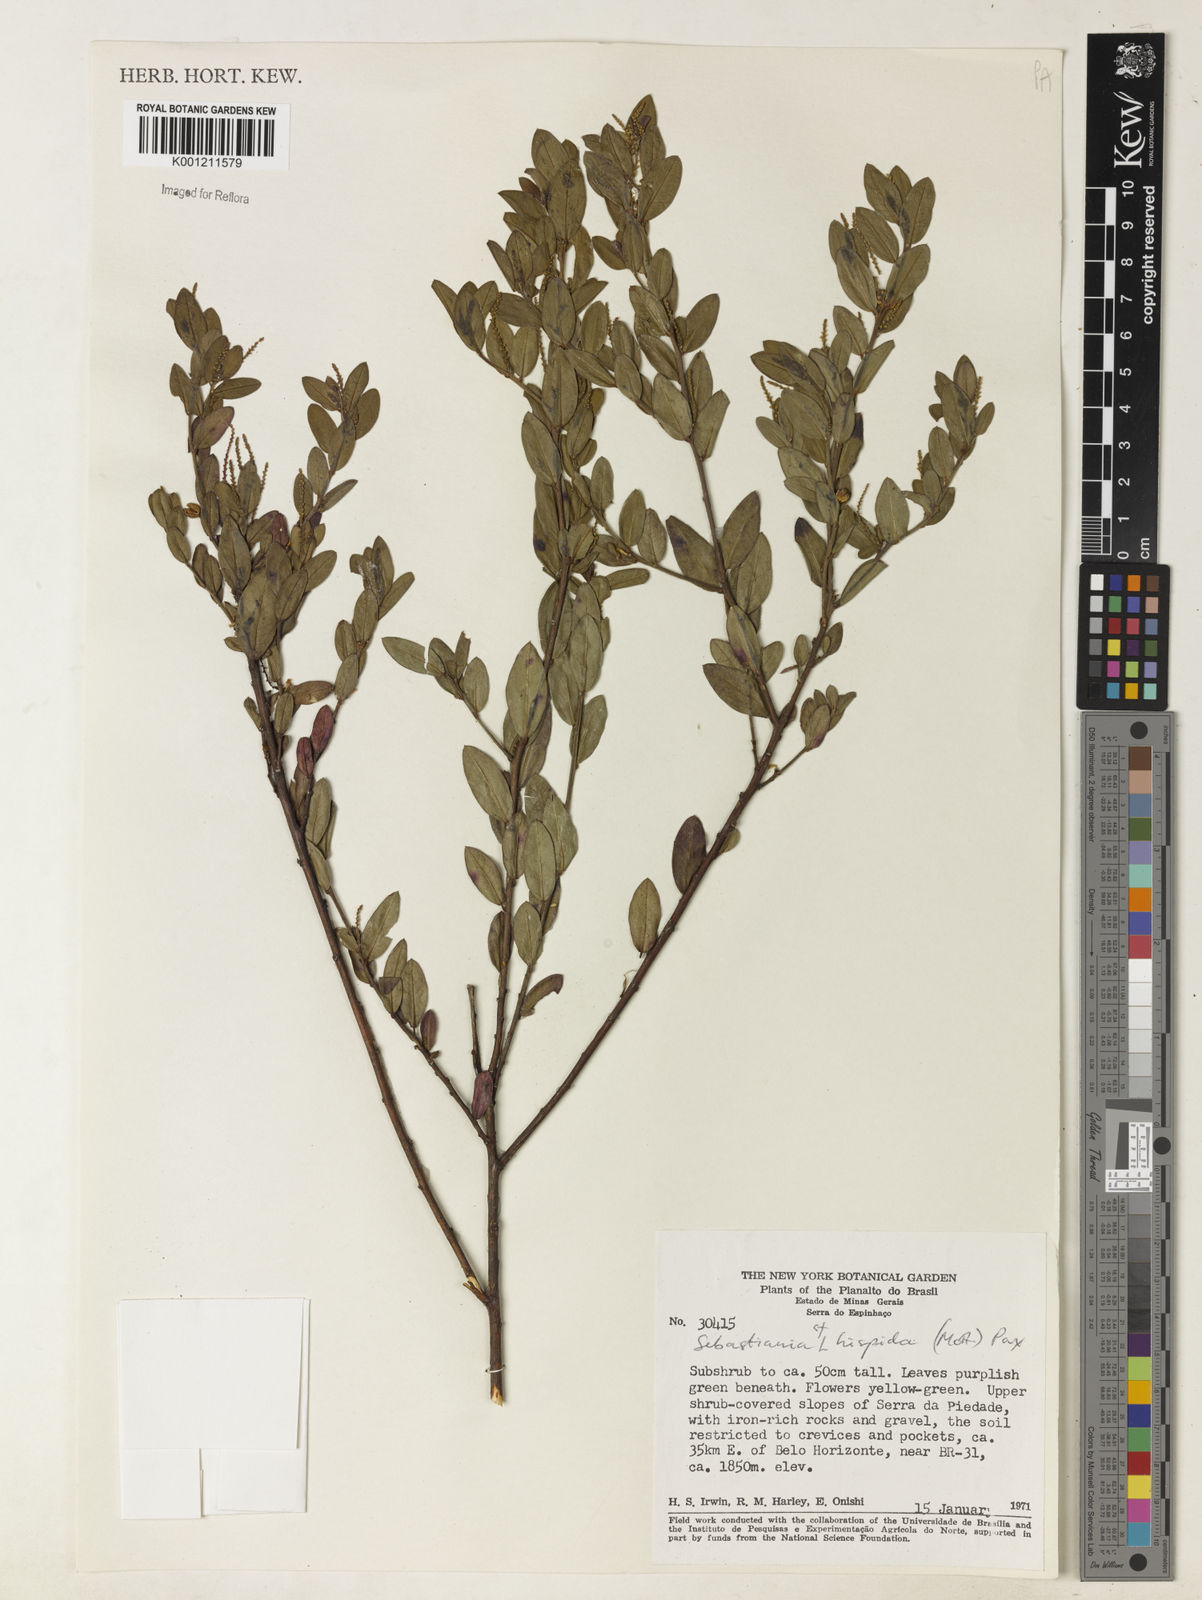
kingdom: Plantae
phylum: Tracheophyta
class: Magnoliopsida
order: Malpighiales
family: Euphorbiaceae
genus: Microstachys
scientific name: Microstachys hispida
